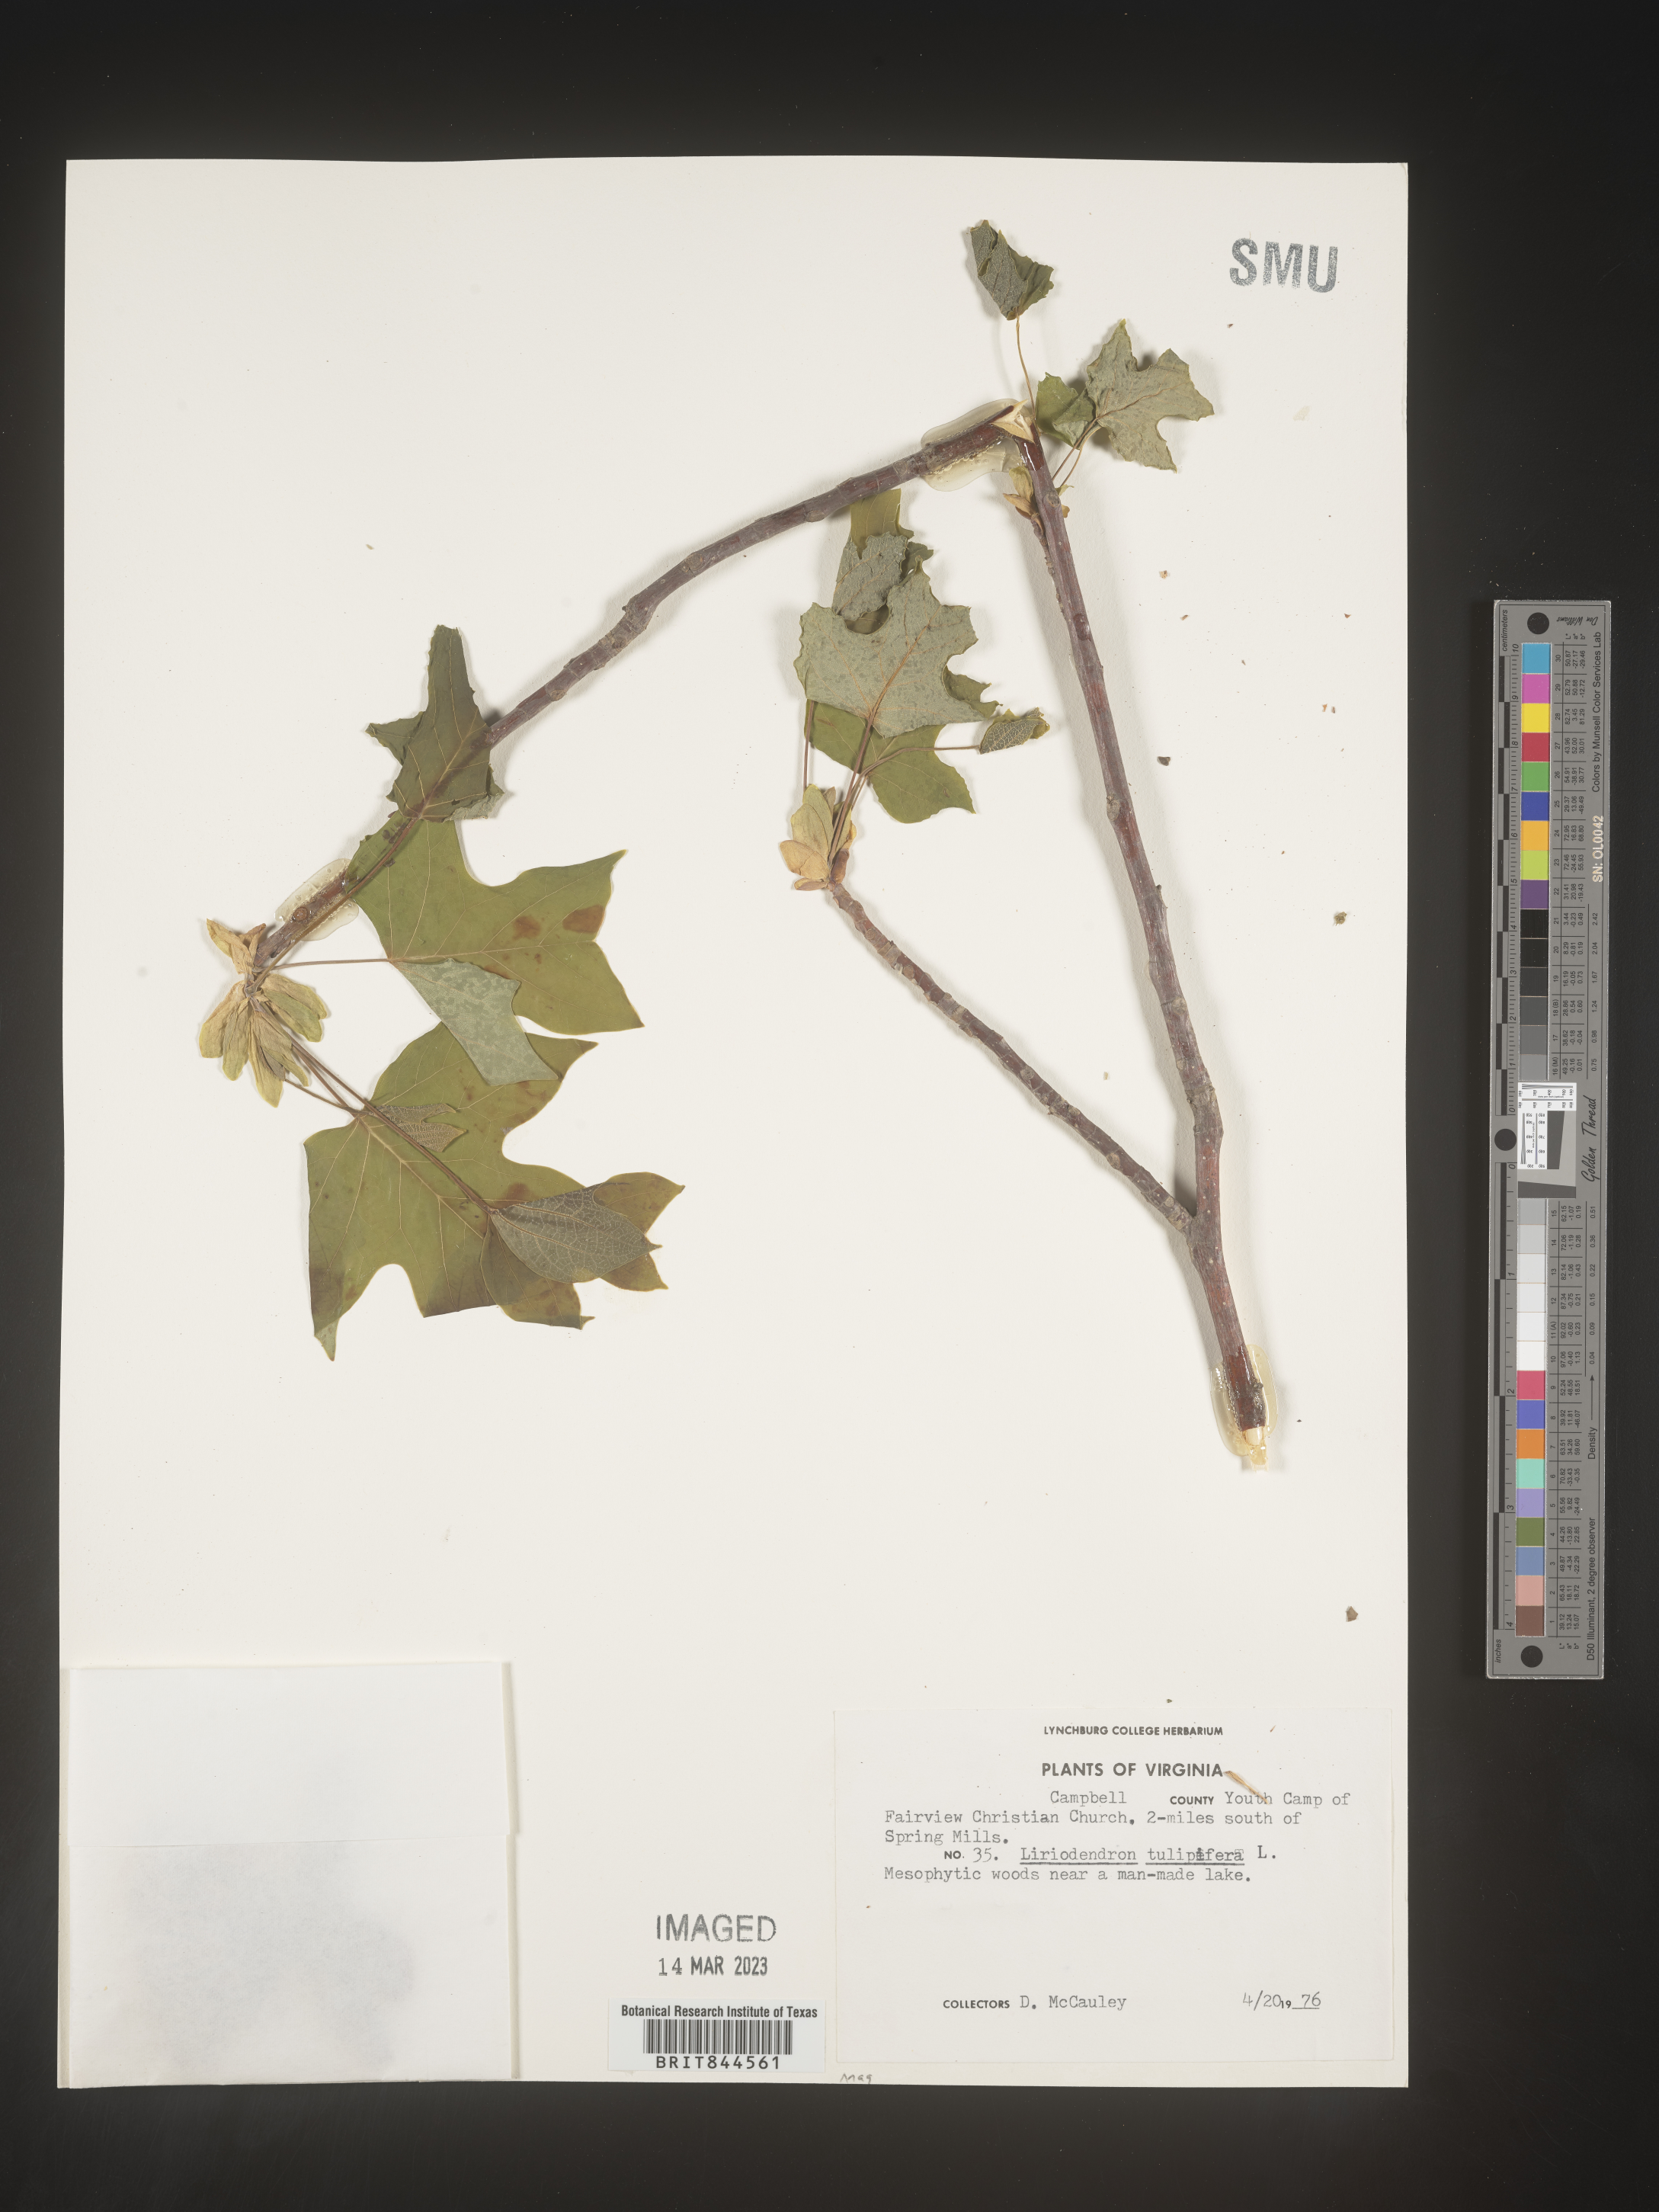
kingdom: Plantae
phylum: Tracheophyta
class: Magnoliopsida
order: Magnoliales
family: Magnoliaceae
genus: Liriodendron
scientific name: Liriodendron tulipifera
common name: Tulip tree
